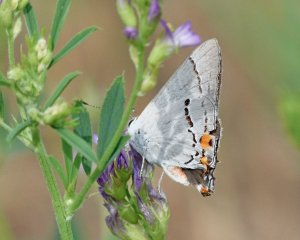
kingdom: Animalia
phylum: Arthropoda
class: Insecta
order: Lepidoptera
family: Lycaenidae
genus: Strymon
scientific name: Strymon melinus
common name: Gray Hairstreak
